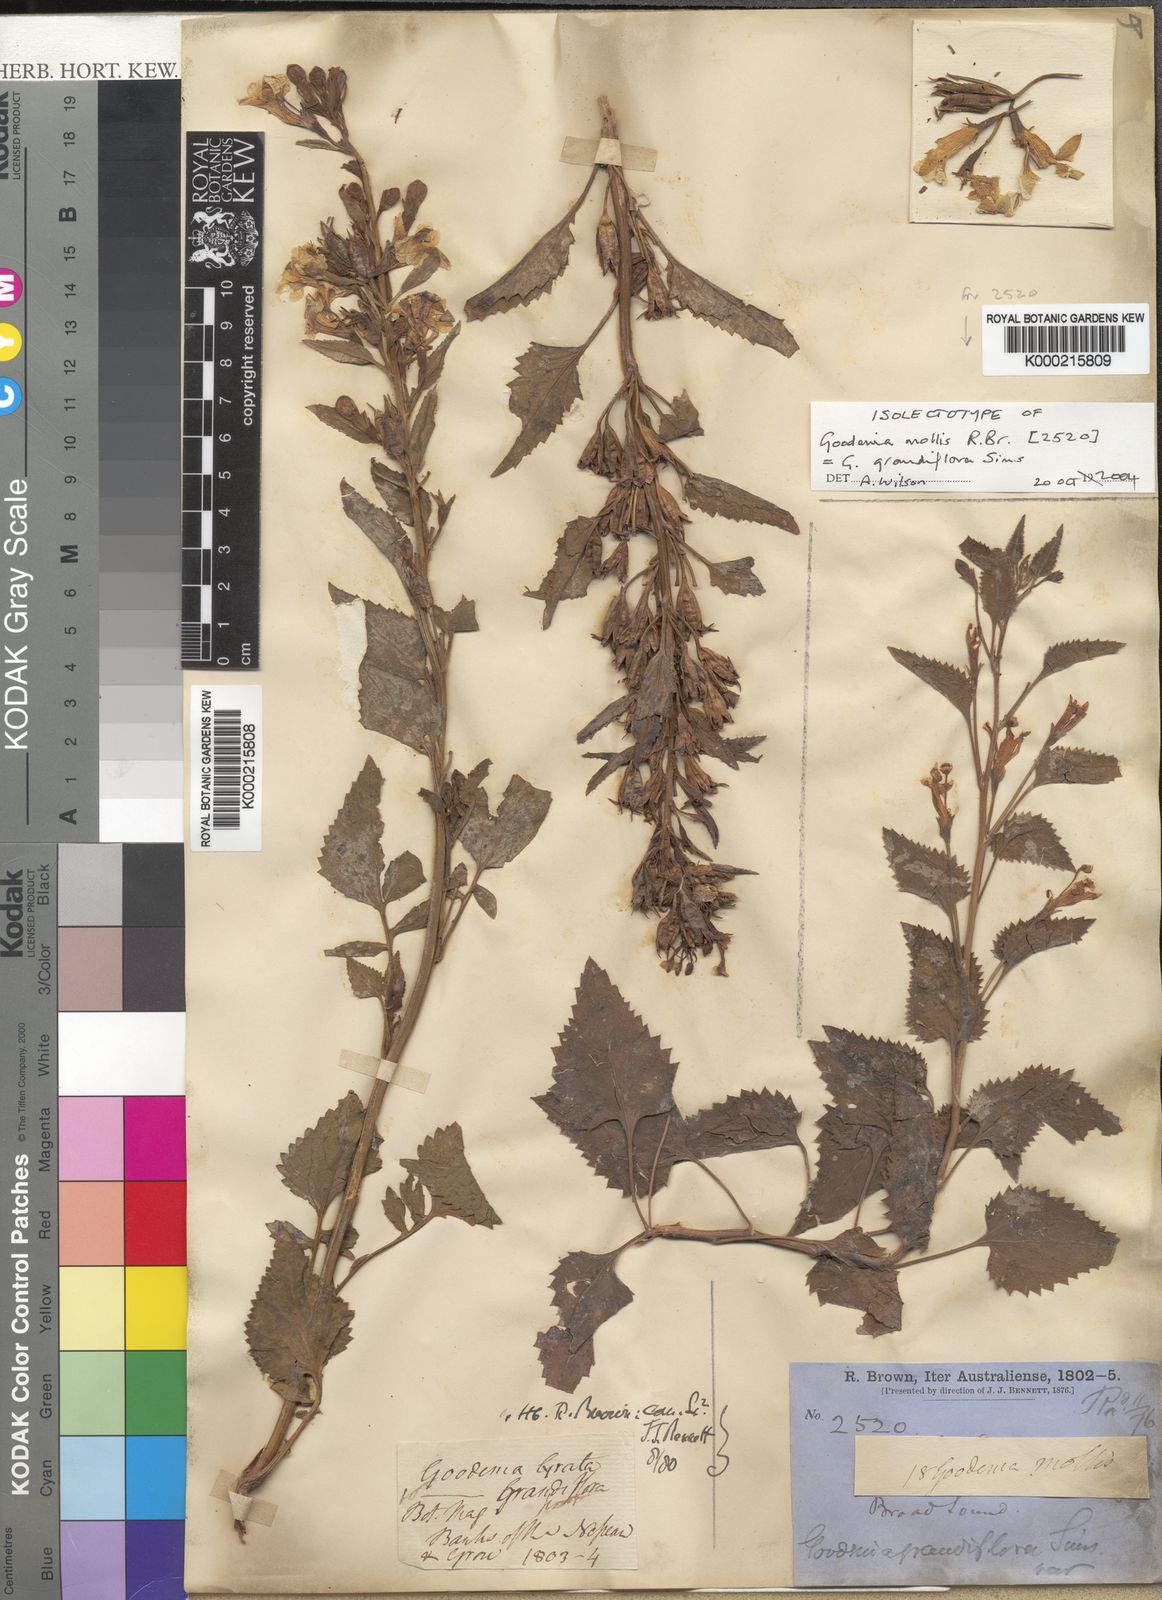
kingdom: Plantae
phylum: Tracheophyta
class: Magnoliopsida
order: Asterales
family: Goodeniaceae
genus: Goodenia
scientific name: Goodenia
